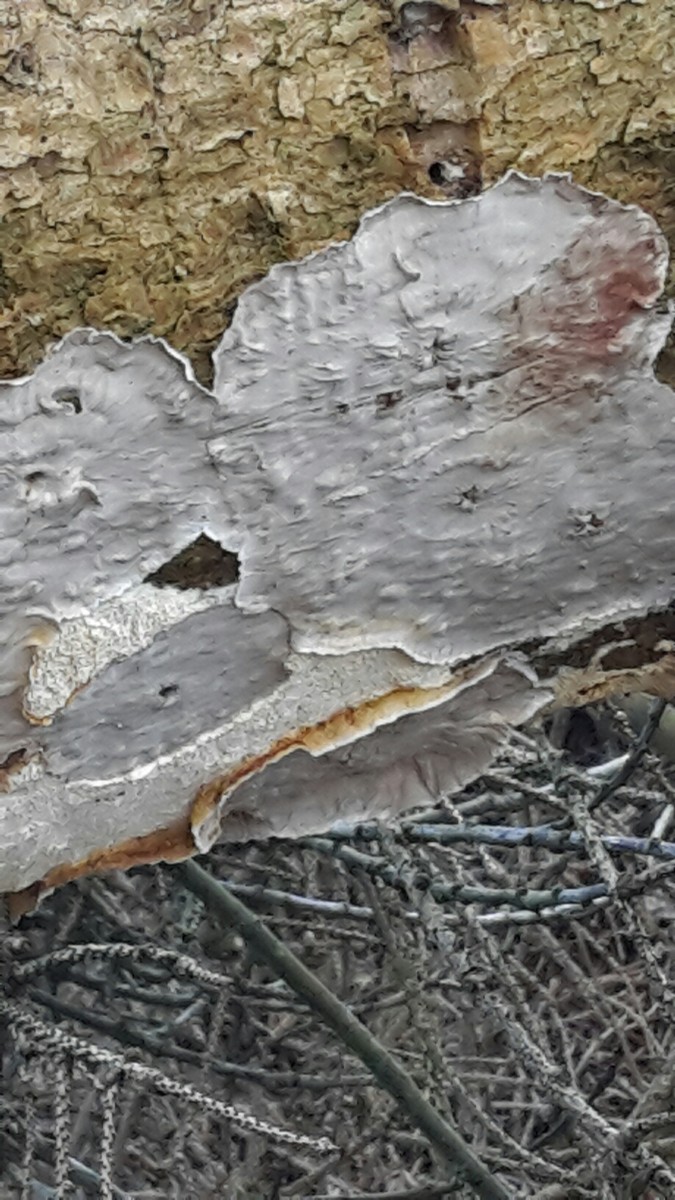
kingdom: Fungi
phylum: Basidiomycota
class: Agaricomycetes
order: Russulales
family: Stereaceae
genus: Stereum
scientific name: Stereum sanguinolentum
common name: blødende lædersvamp
